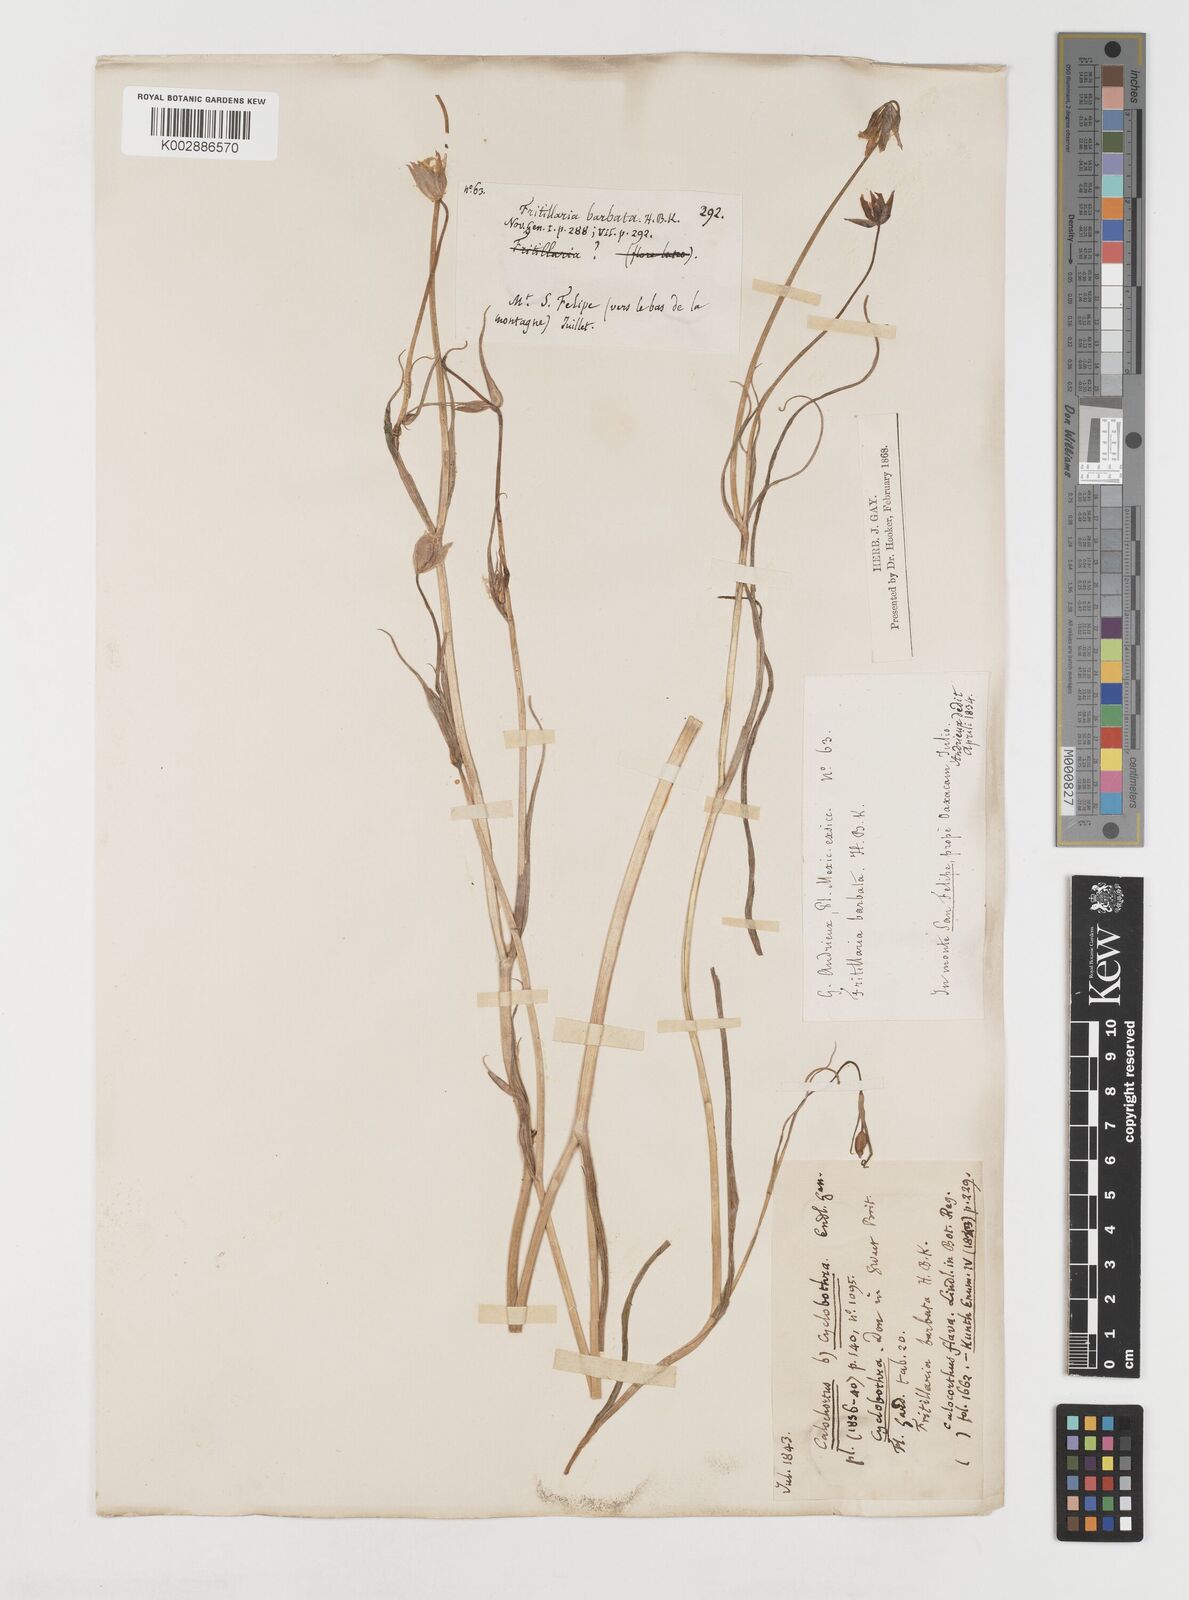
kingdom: Plantae
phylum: Tracheophyta
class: Liliopsida
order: Liliales
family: Liliaceae
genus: Calochortus
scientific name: Calochortus barbatus
